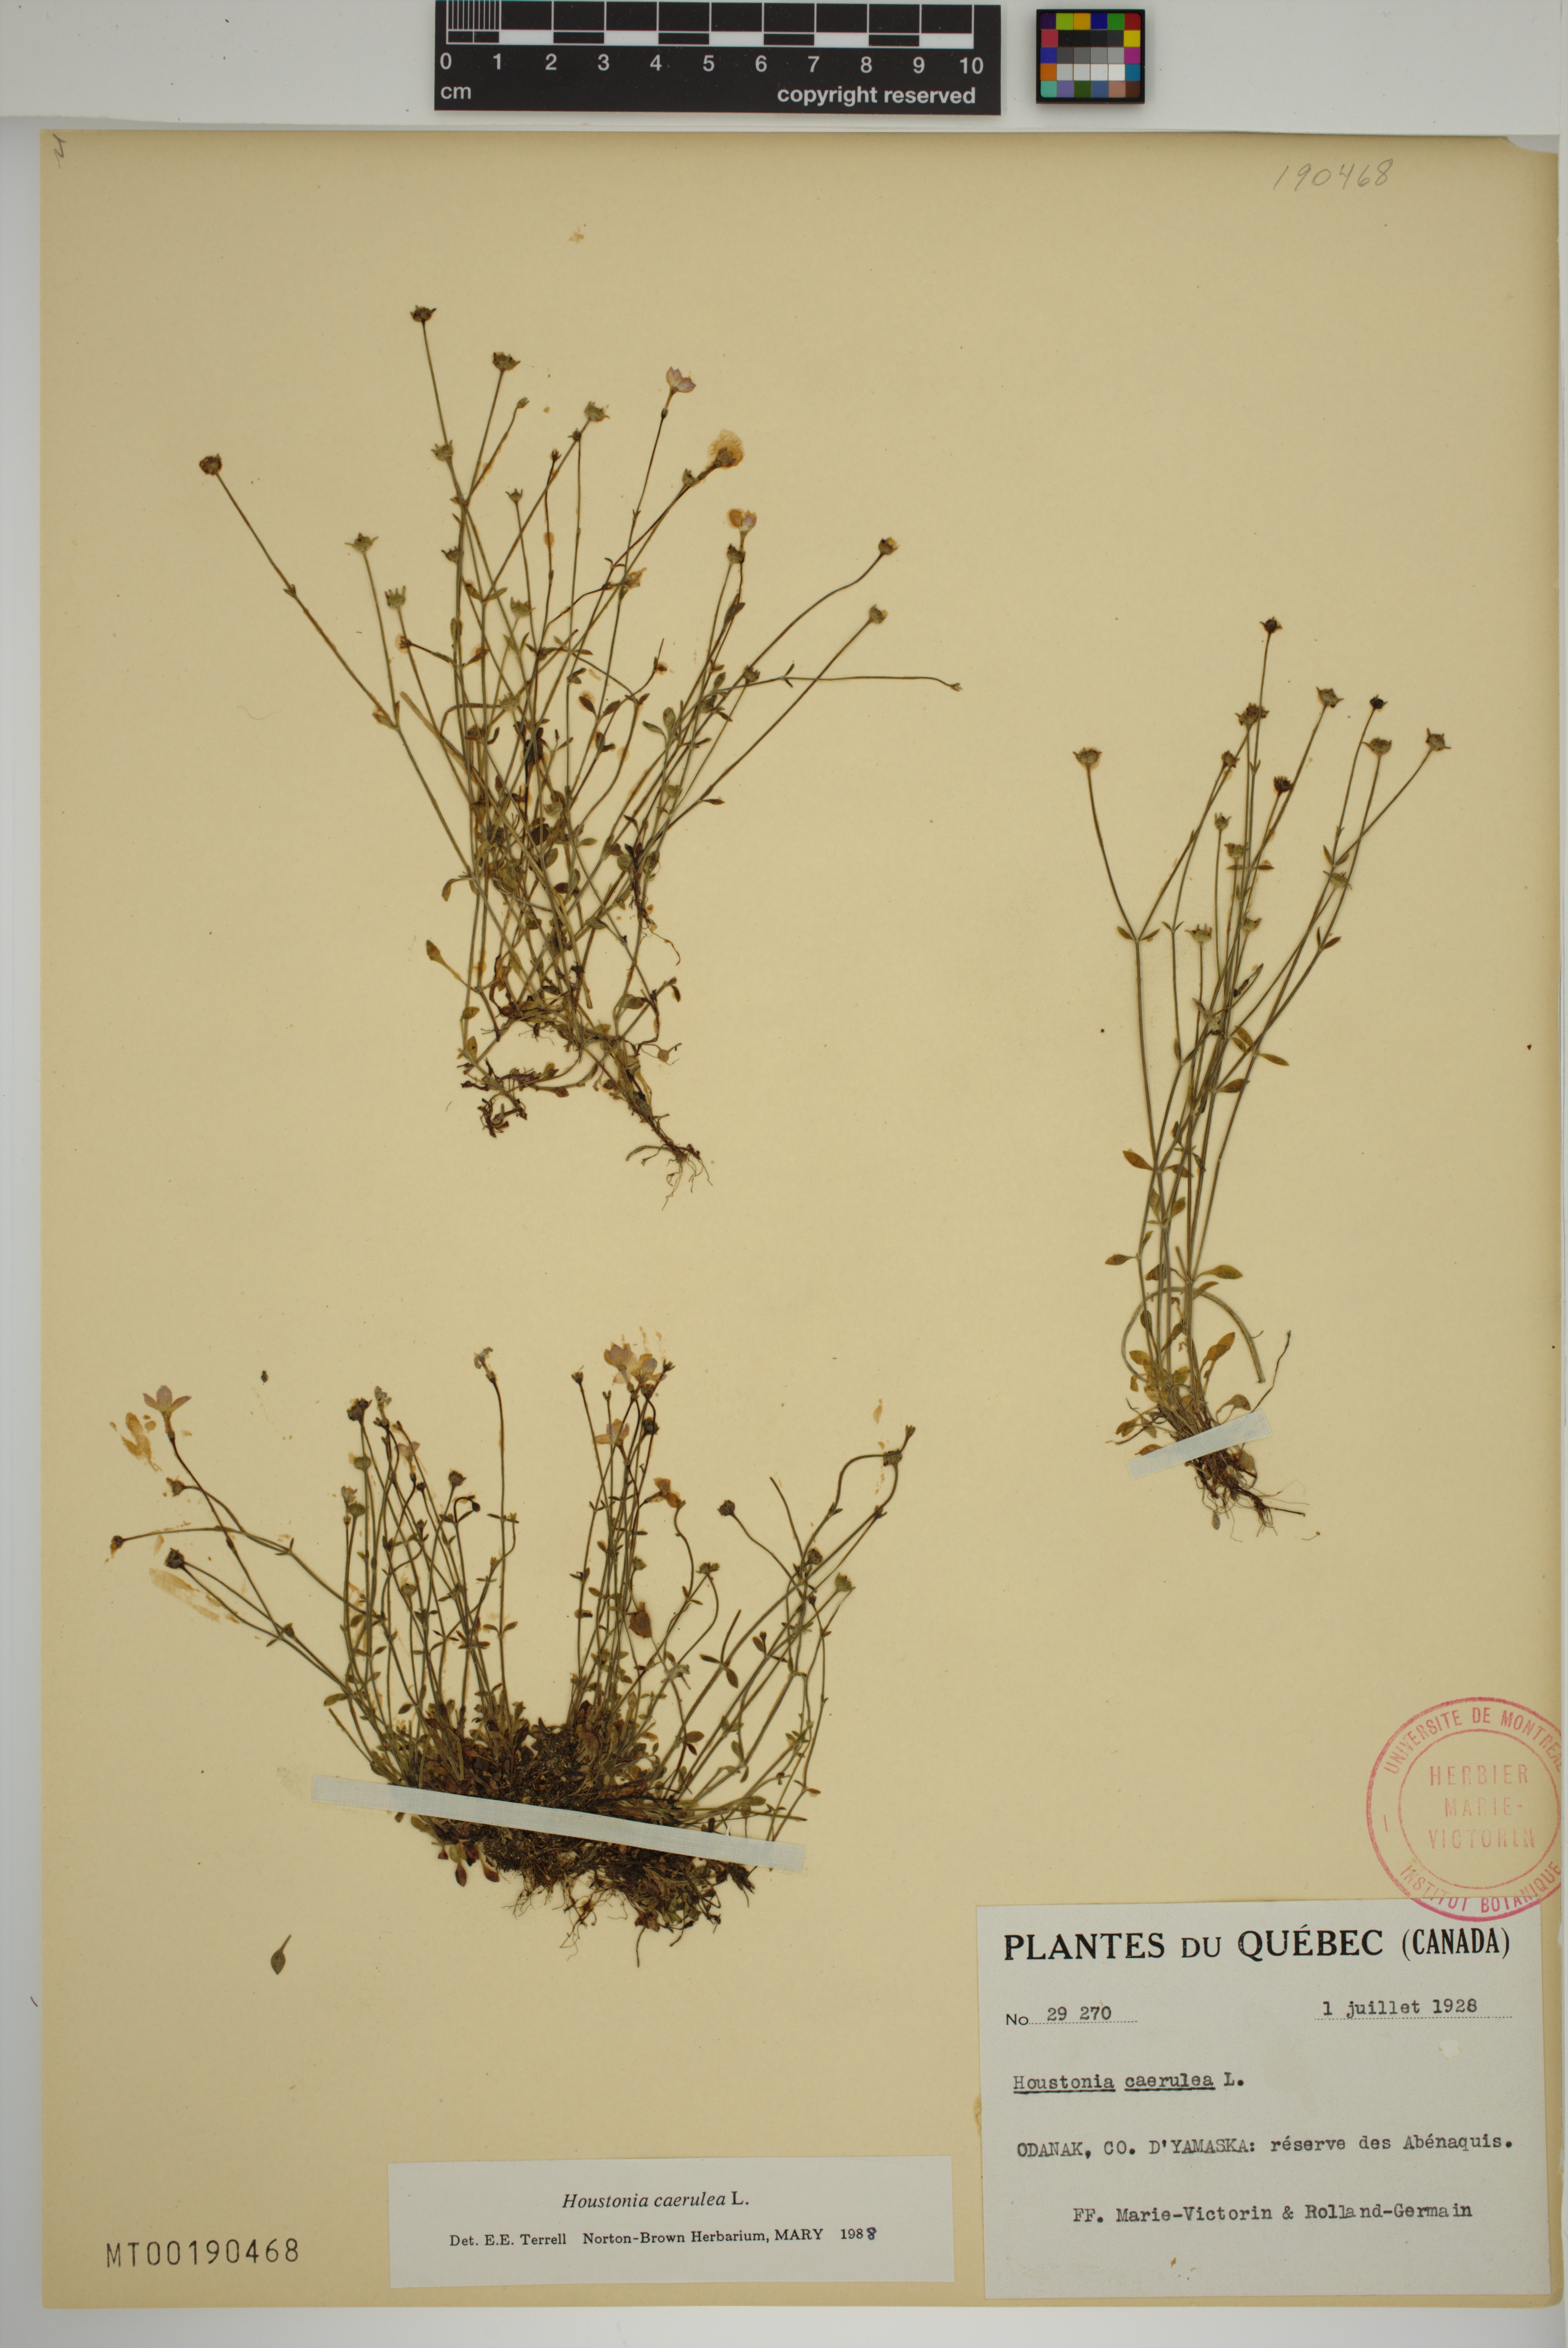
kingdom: Plantae
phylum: Tracheophyta
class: Magnoliopsida
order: Gentianales
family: Rubiaceae
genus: Houstonia
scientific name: Houstonia caerulea
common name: Bluets
